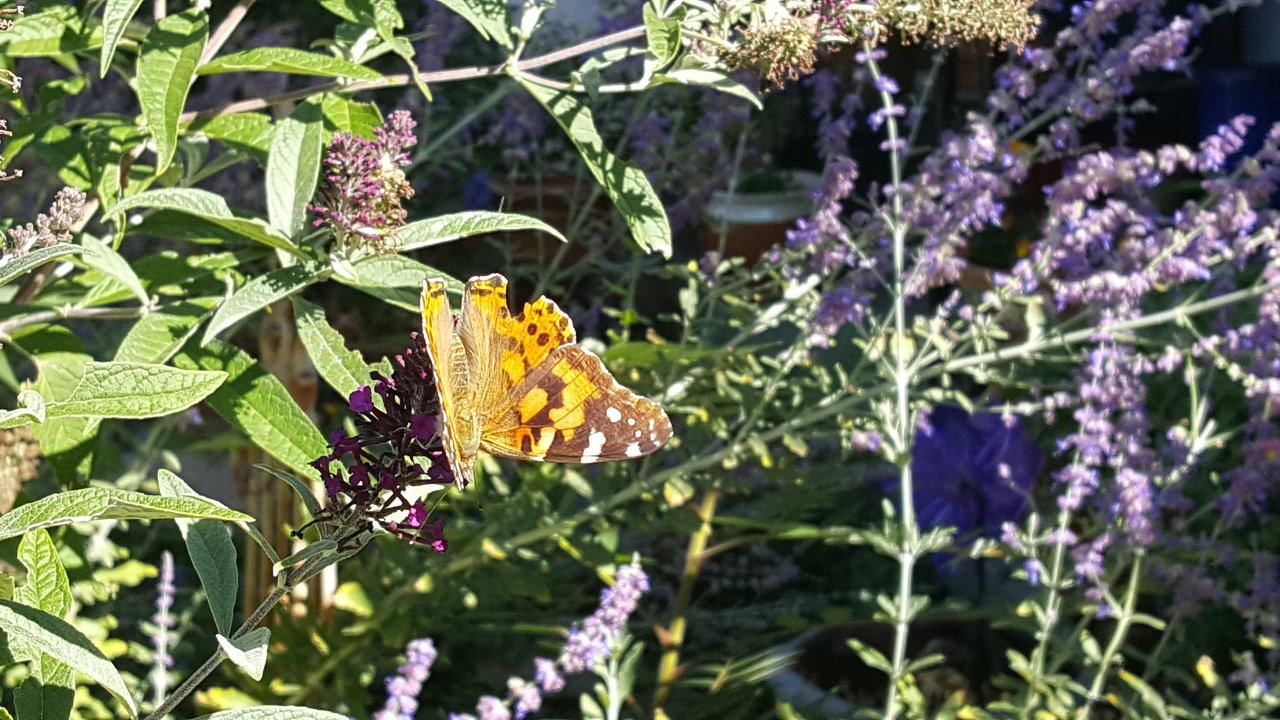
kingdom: Animalia
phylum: Arthropoda
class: Insecta
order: Lepidoptera
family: Nymphalidae
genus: Vanessa
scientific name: Vanessa cardui
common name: Painted Lady
